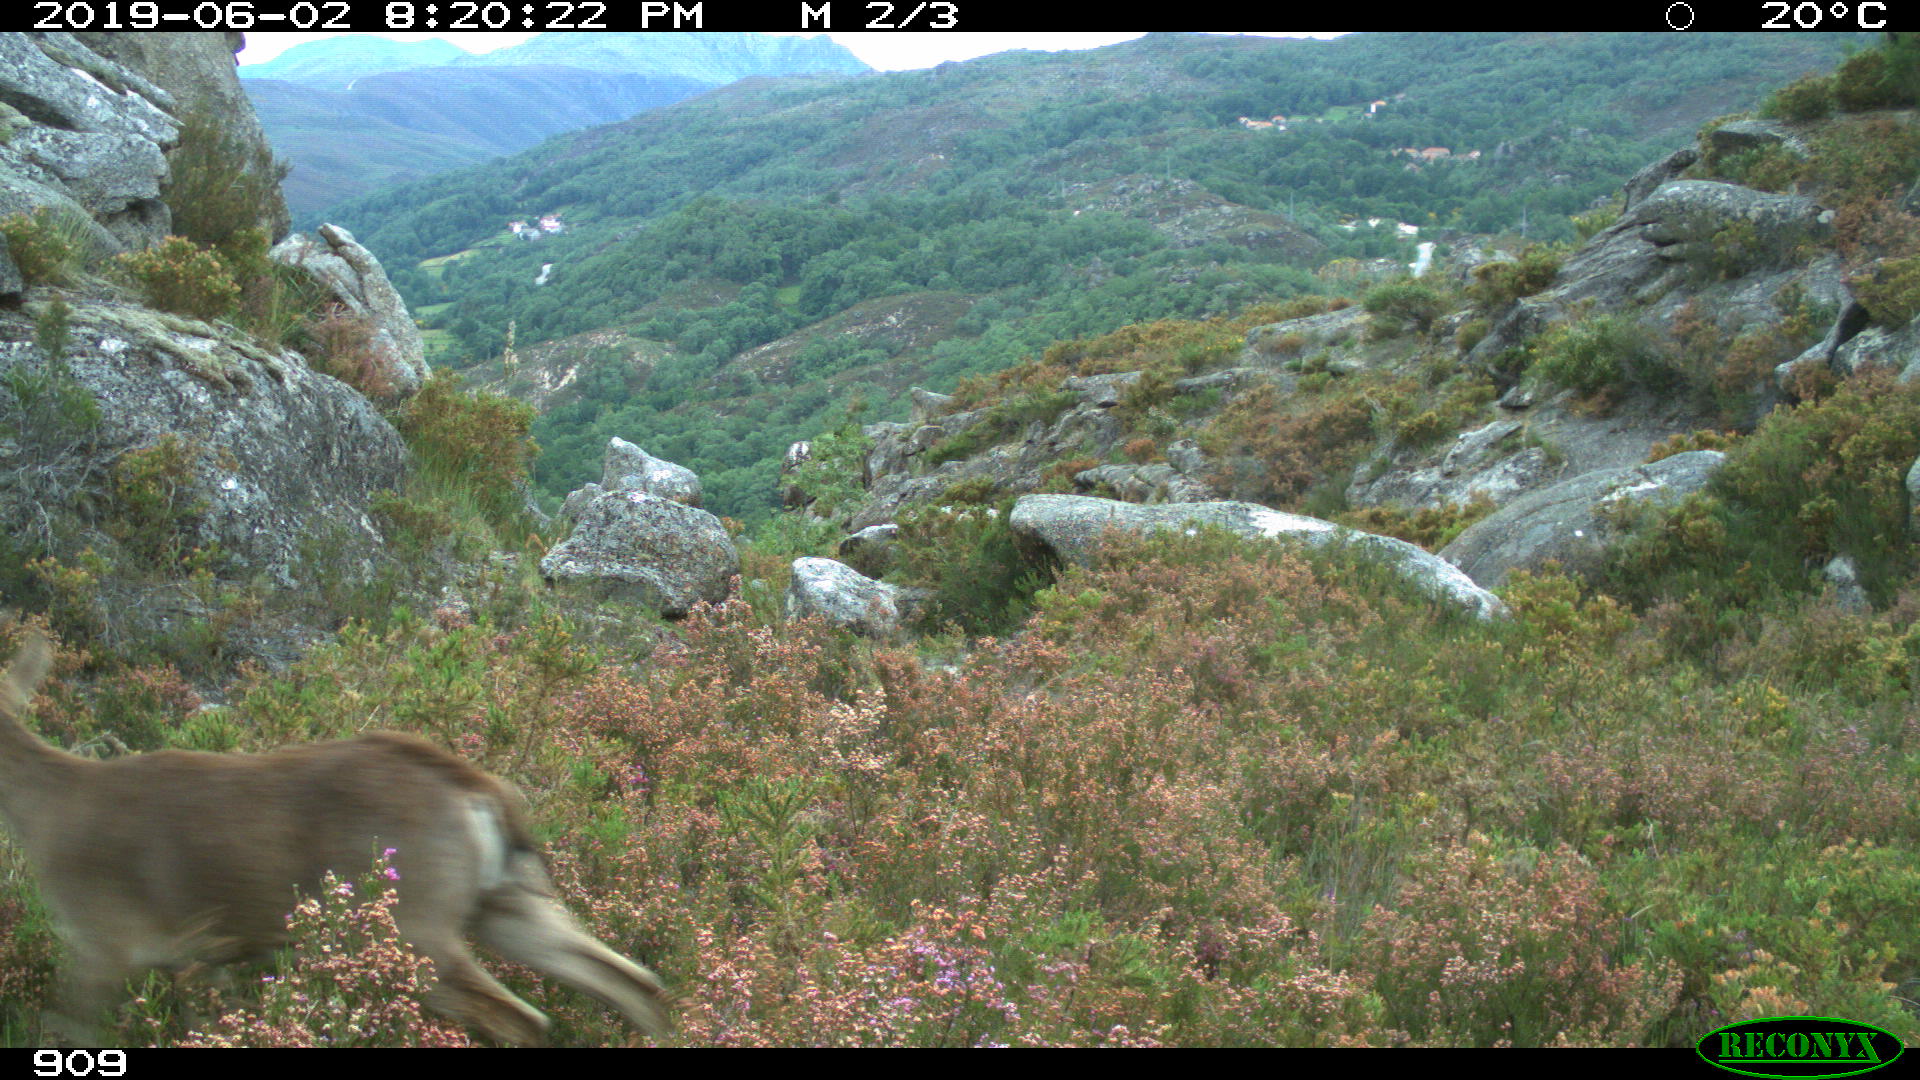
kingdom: Animalia
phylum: Chordata
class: Mammalia
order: Artiodactyla
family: Bovidae
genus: Capra
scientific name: Capra pyrenaica
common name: Spanish ibex
